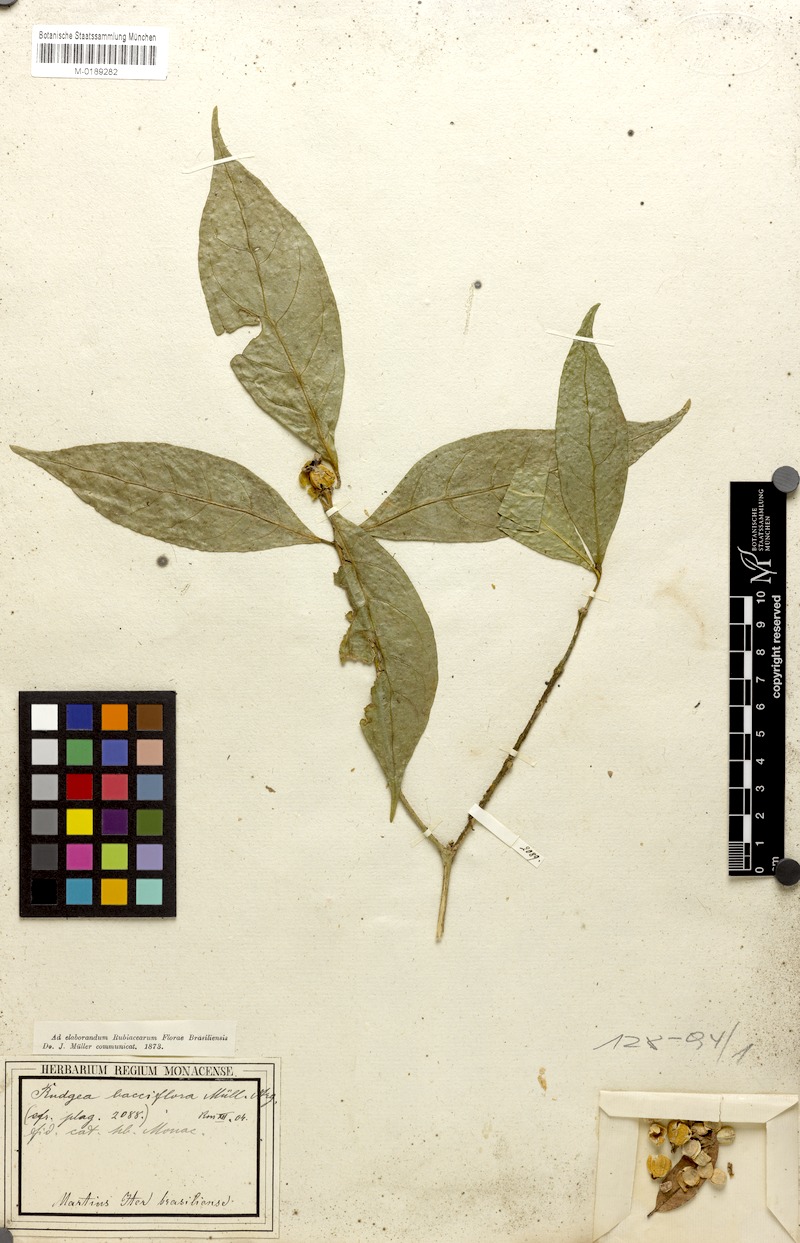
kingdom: Plantae
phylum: Tracheophyta
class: Magnoliopsida
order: Gentianales
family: Rubiaceae
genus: Rudgea
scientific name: Rudgea bacciflora
